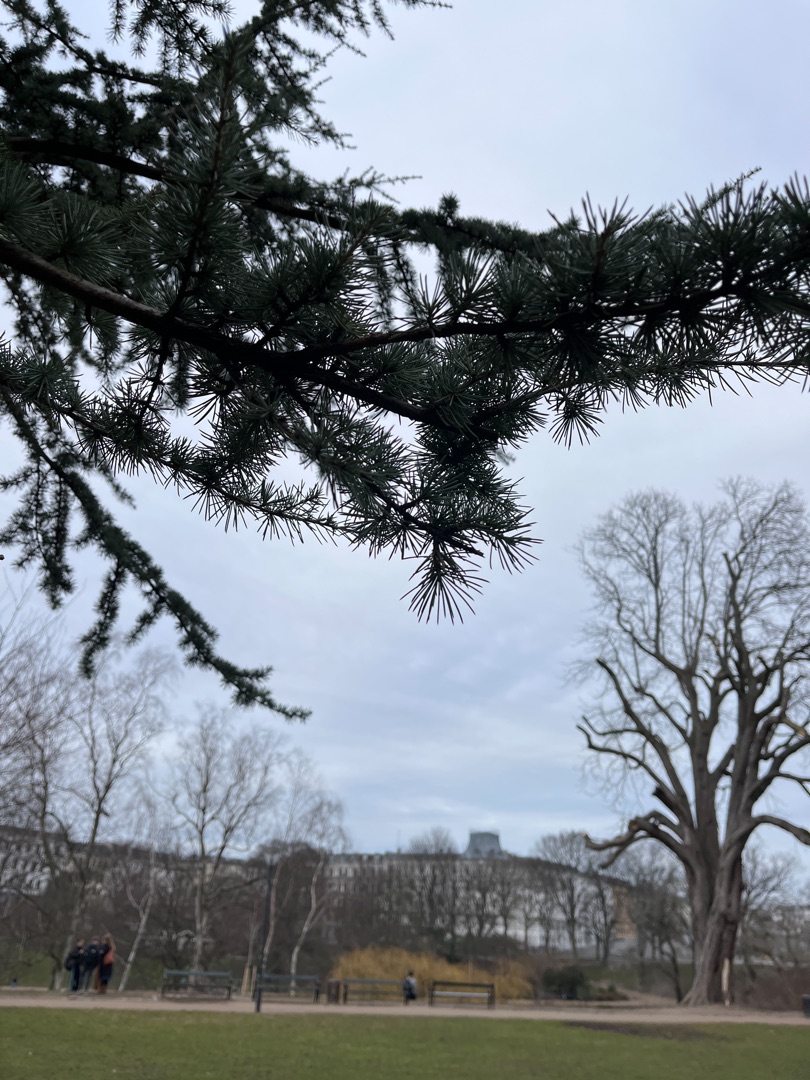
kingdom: Plantae
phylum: Tracheophyta
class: Pinopsida
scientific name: Pinopsida
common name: Nåletræer
